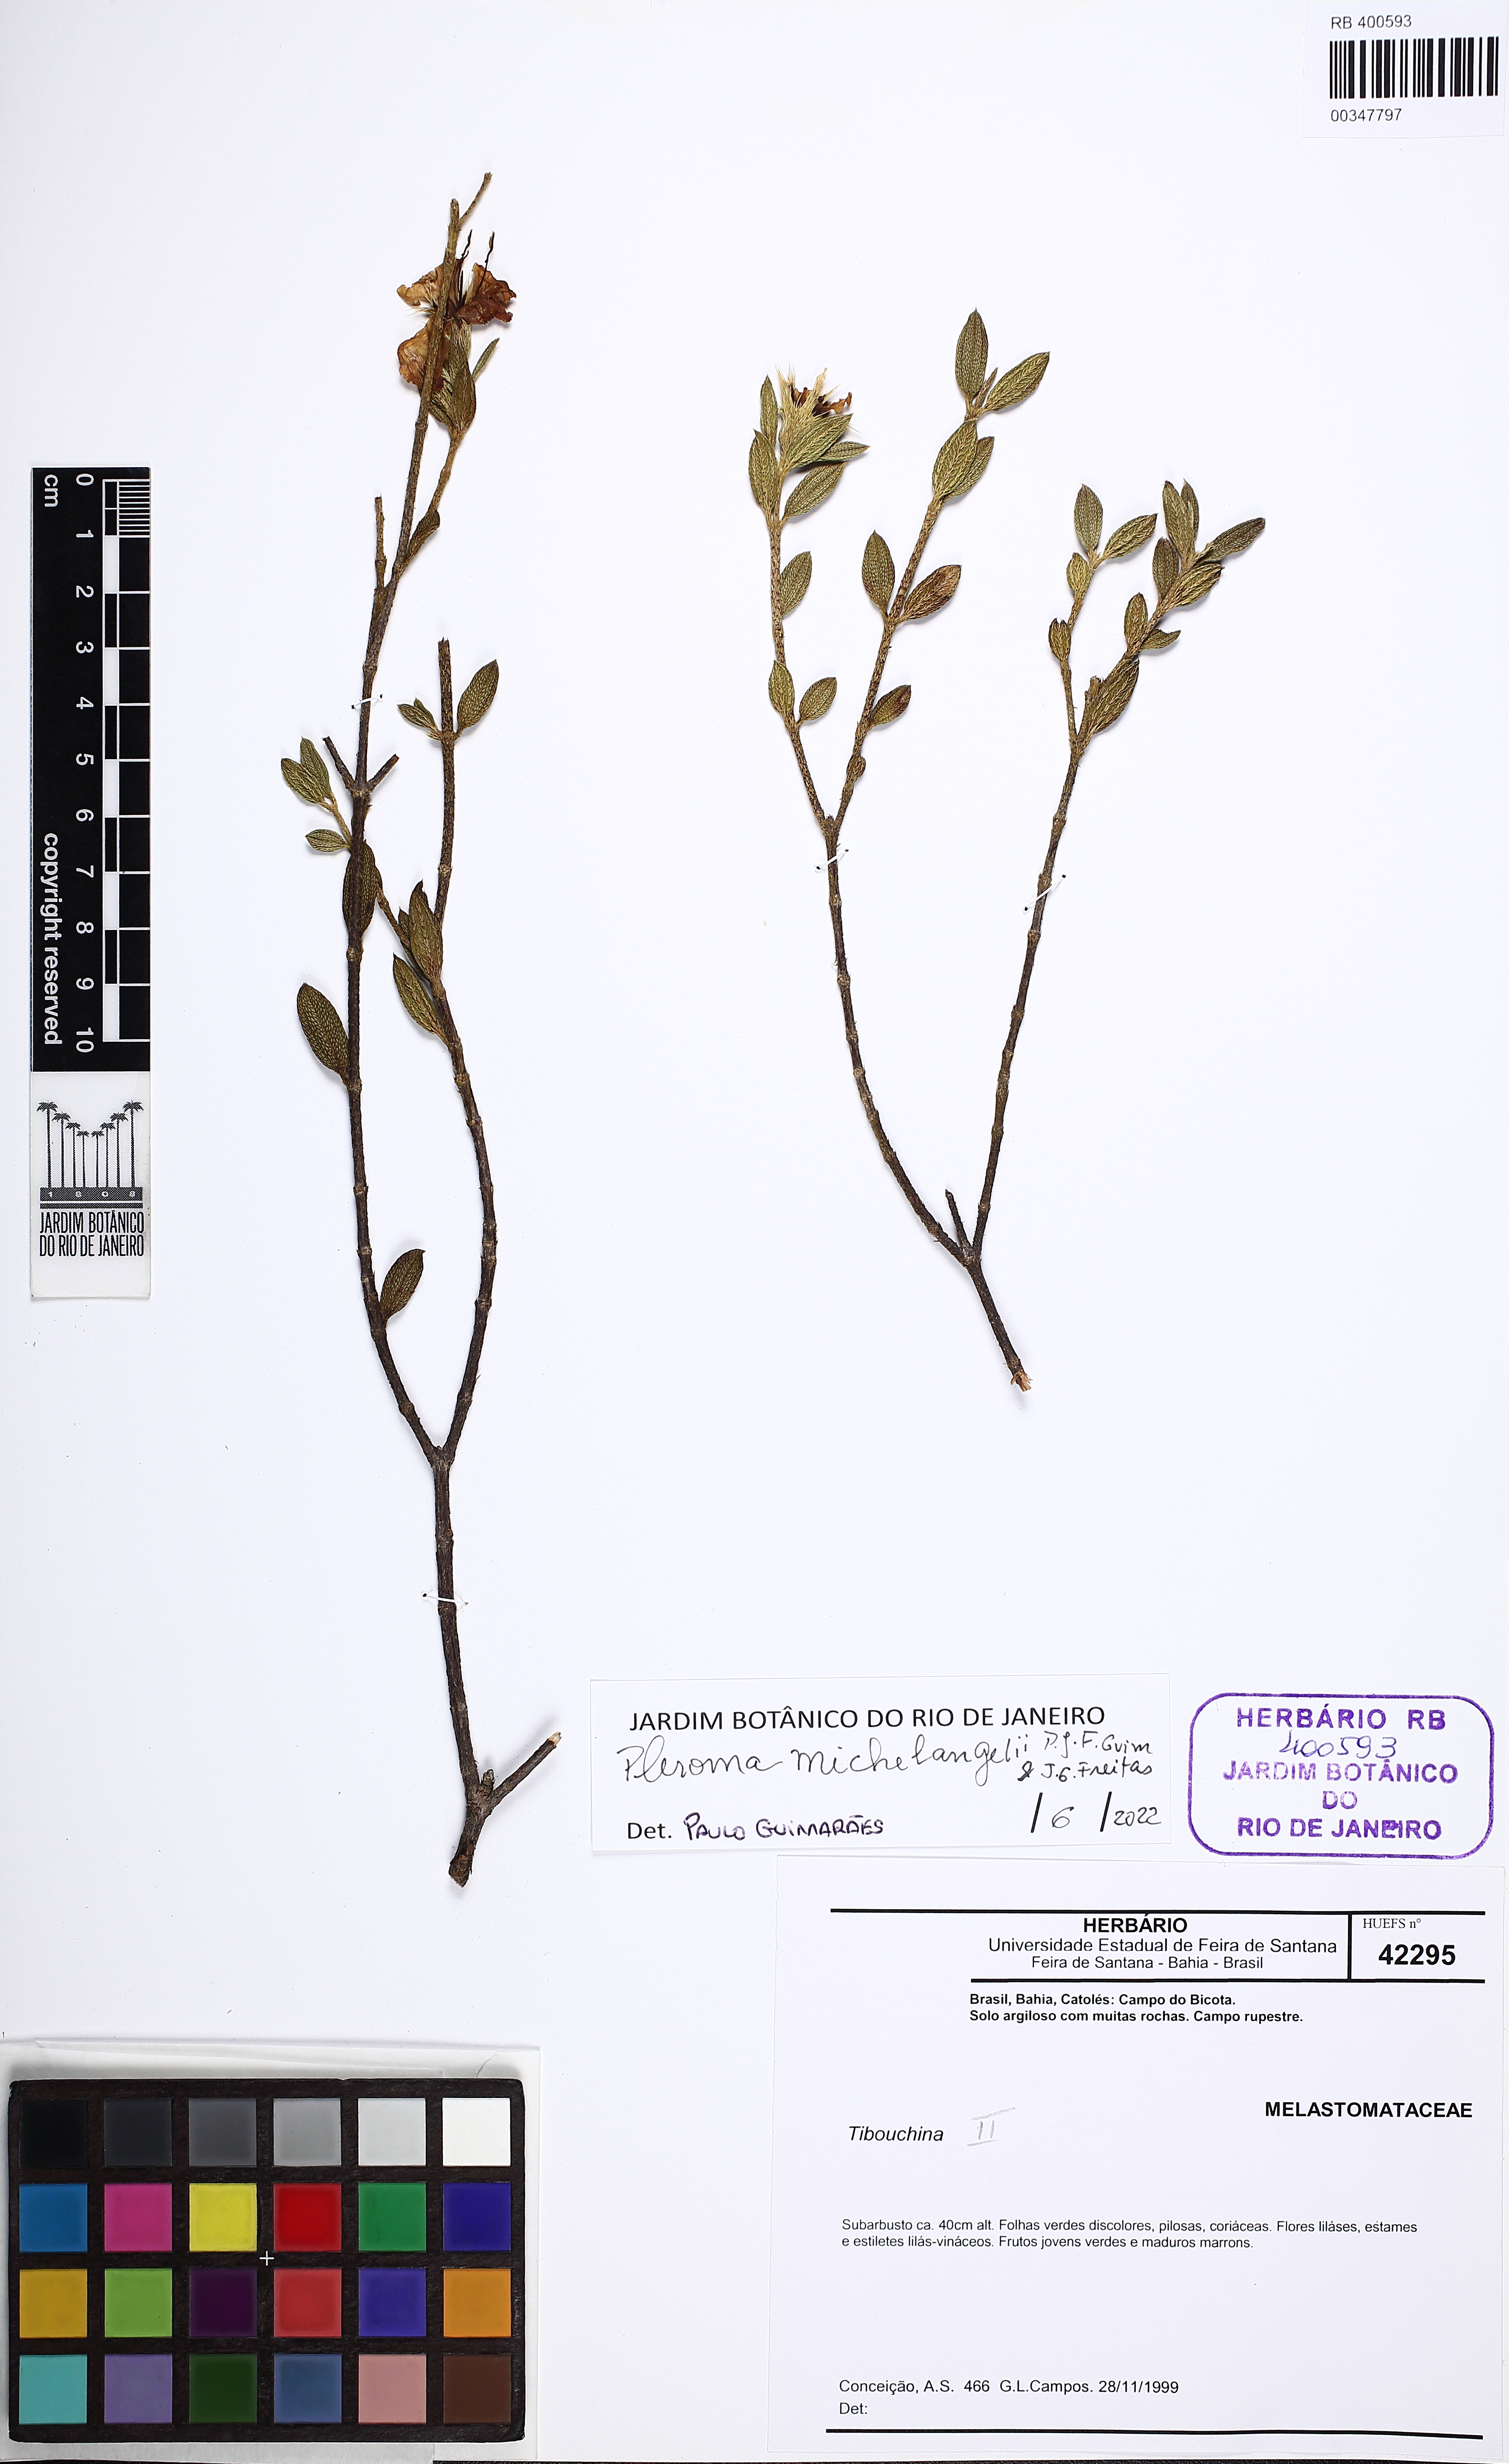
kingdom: Plantae
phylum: Tracheophyta
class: Magnoliopsida
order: Myrtales
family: Melastomataceae
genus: Pleroma
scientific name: Pleroma michelangelii
